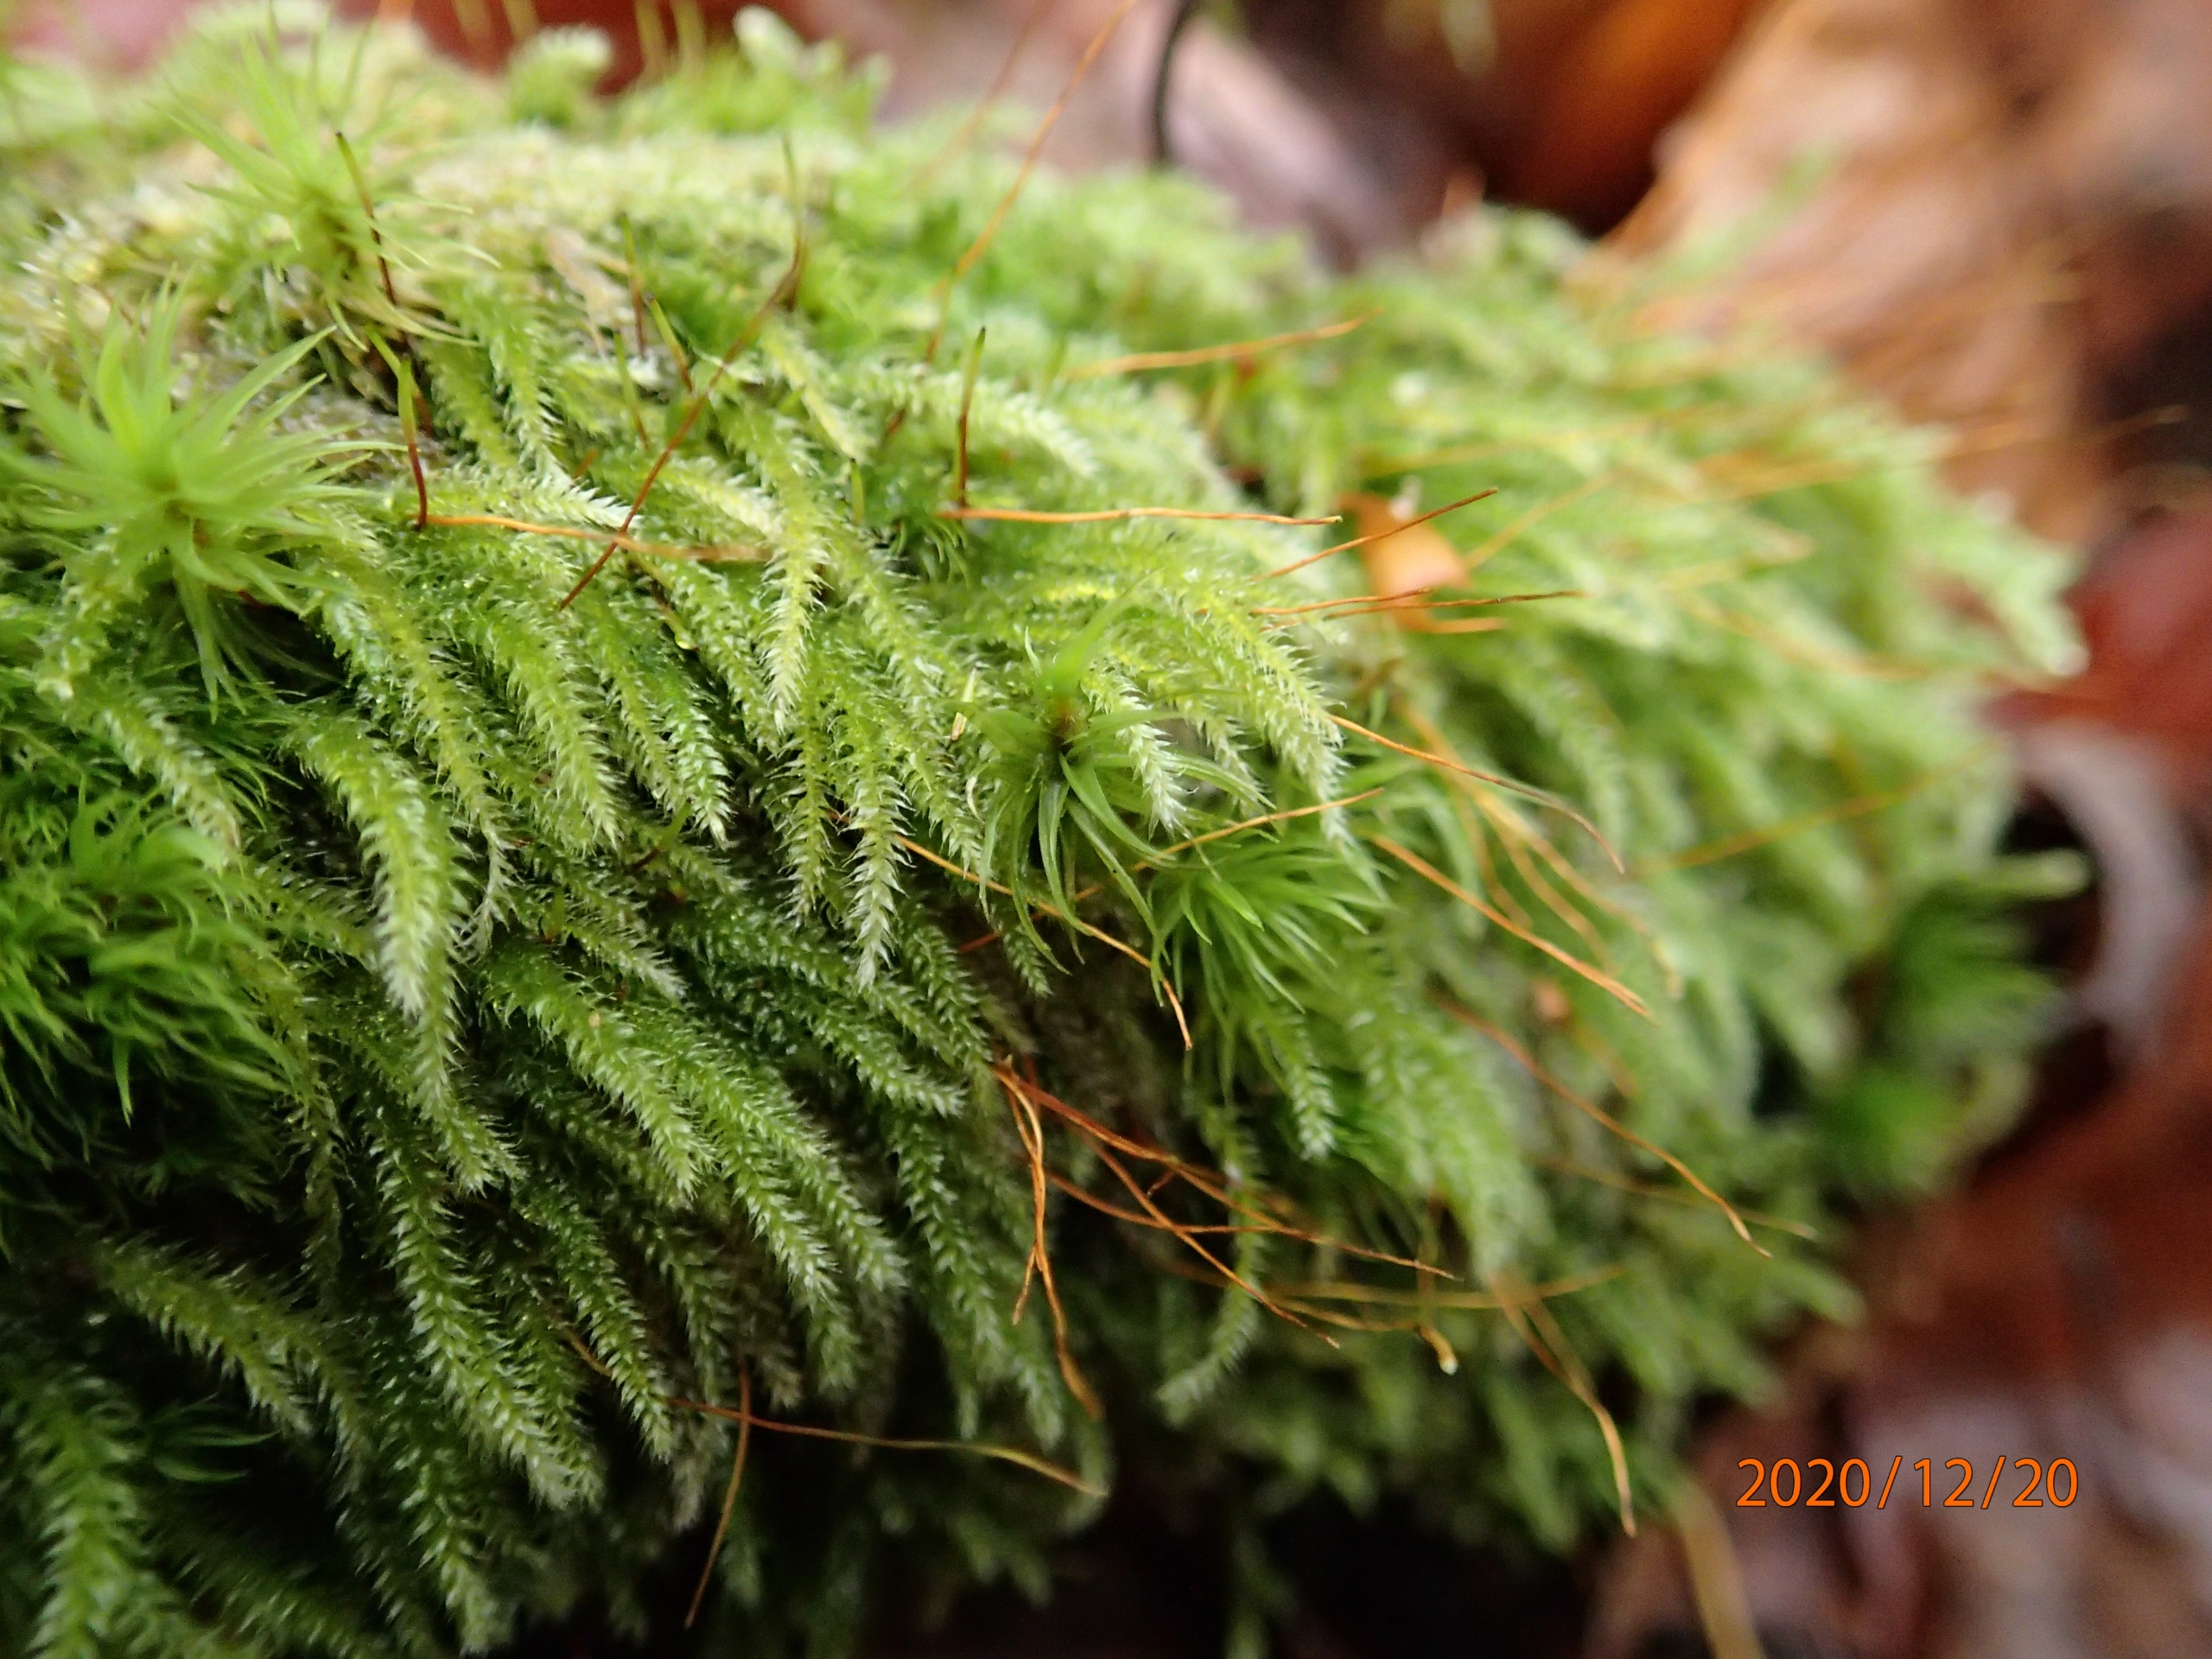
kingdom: Plantae
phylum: Bryophyta
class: Bryopsida
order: Hypnales
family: Plagiotheciaceae
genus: Herzogiella
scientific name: Herzogiella seligeri
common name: Stub-pølsekapsel
